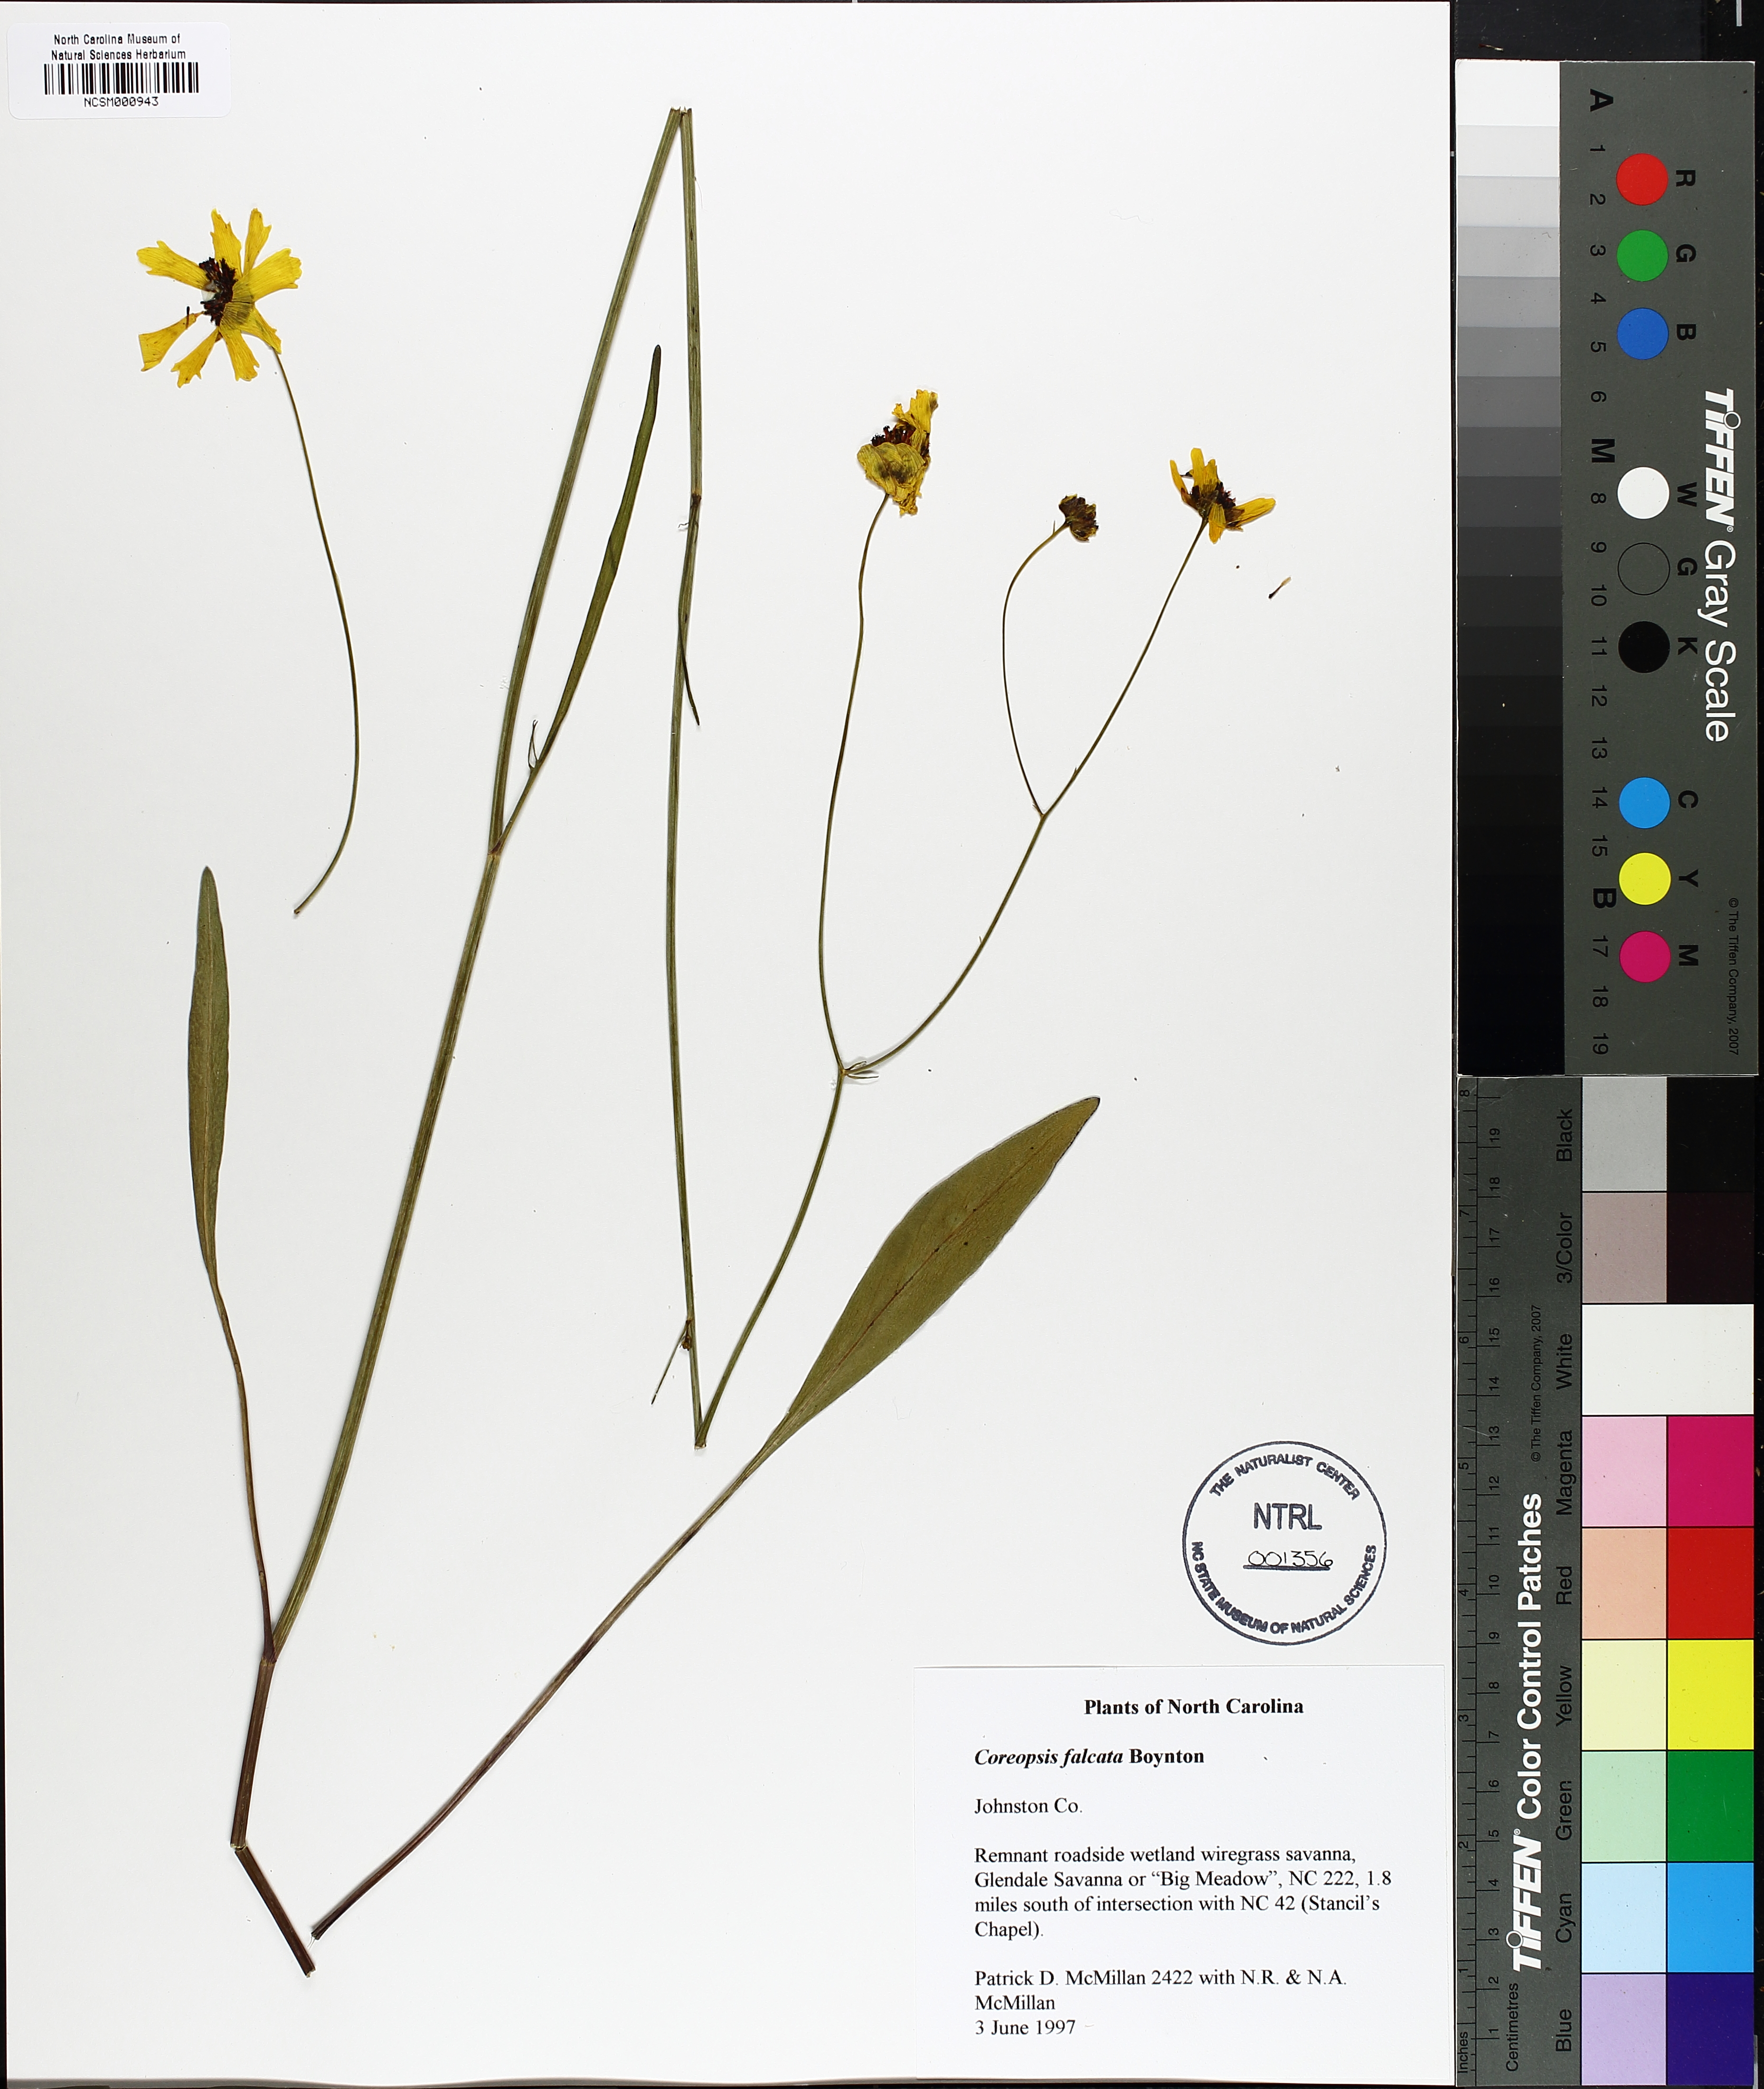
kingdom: Plantae
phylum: Tracheophyta
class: Magnoliopsida
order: Asterales
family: Asteraceae
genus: Coreopsis
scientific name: Coreopsis gladiata
